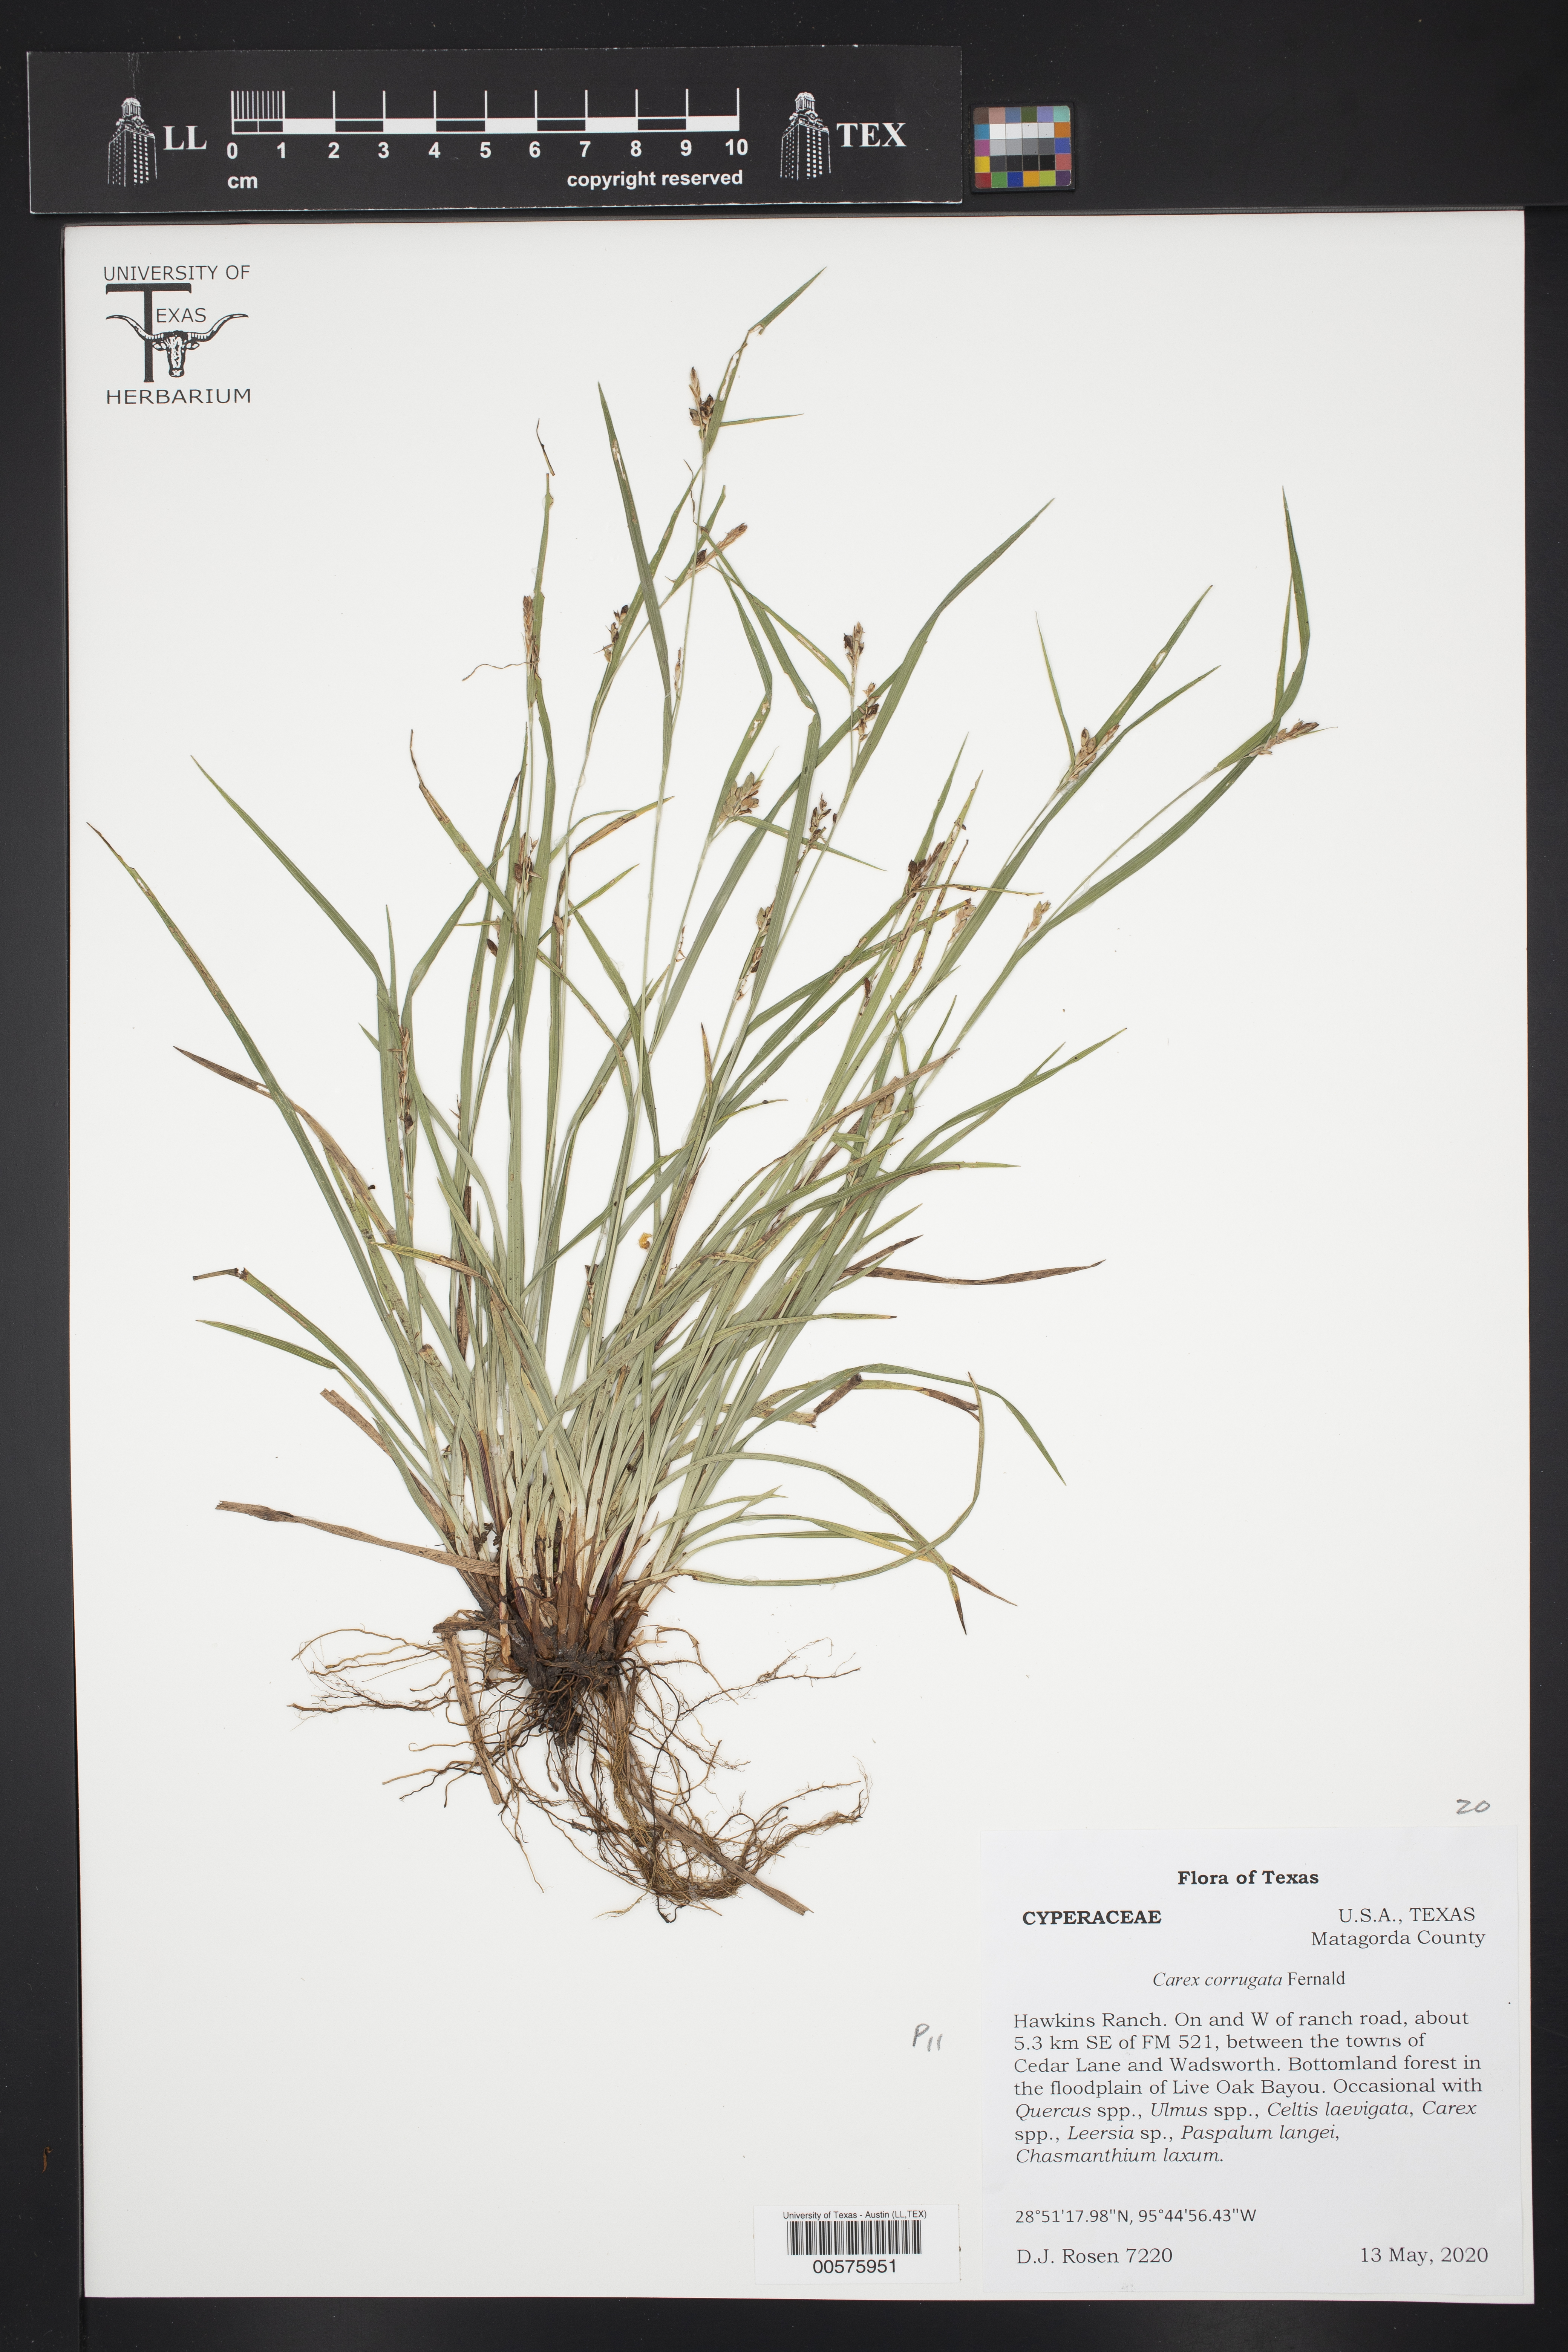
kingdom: Plantae
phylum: Tracheophyta
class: Liliopsida
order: Poales
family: Cyperaceae
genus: Carex
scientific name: Carex corrugata
